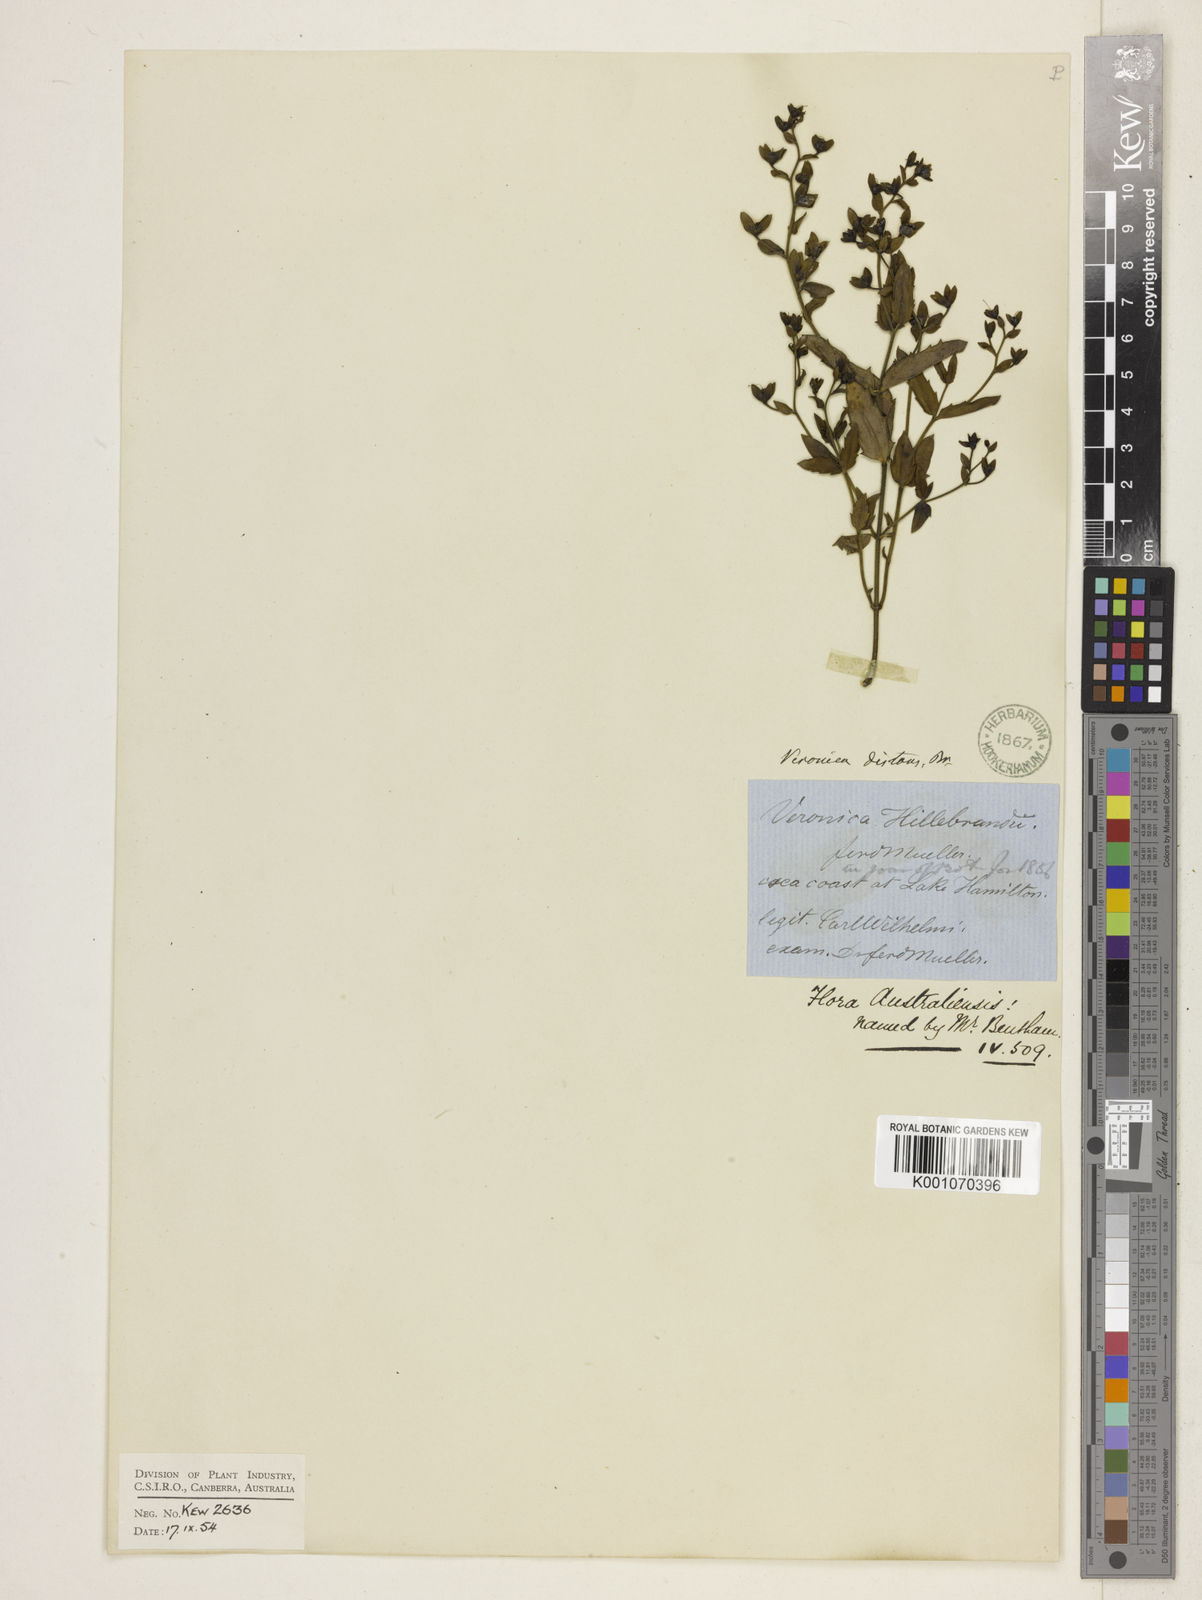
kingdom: Plantae
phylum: Tracheophyta
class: Magnoliopsida
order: Lamiales
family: Plantaginaceae
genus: Veronica
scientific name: Veronica distans
